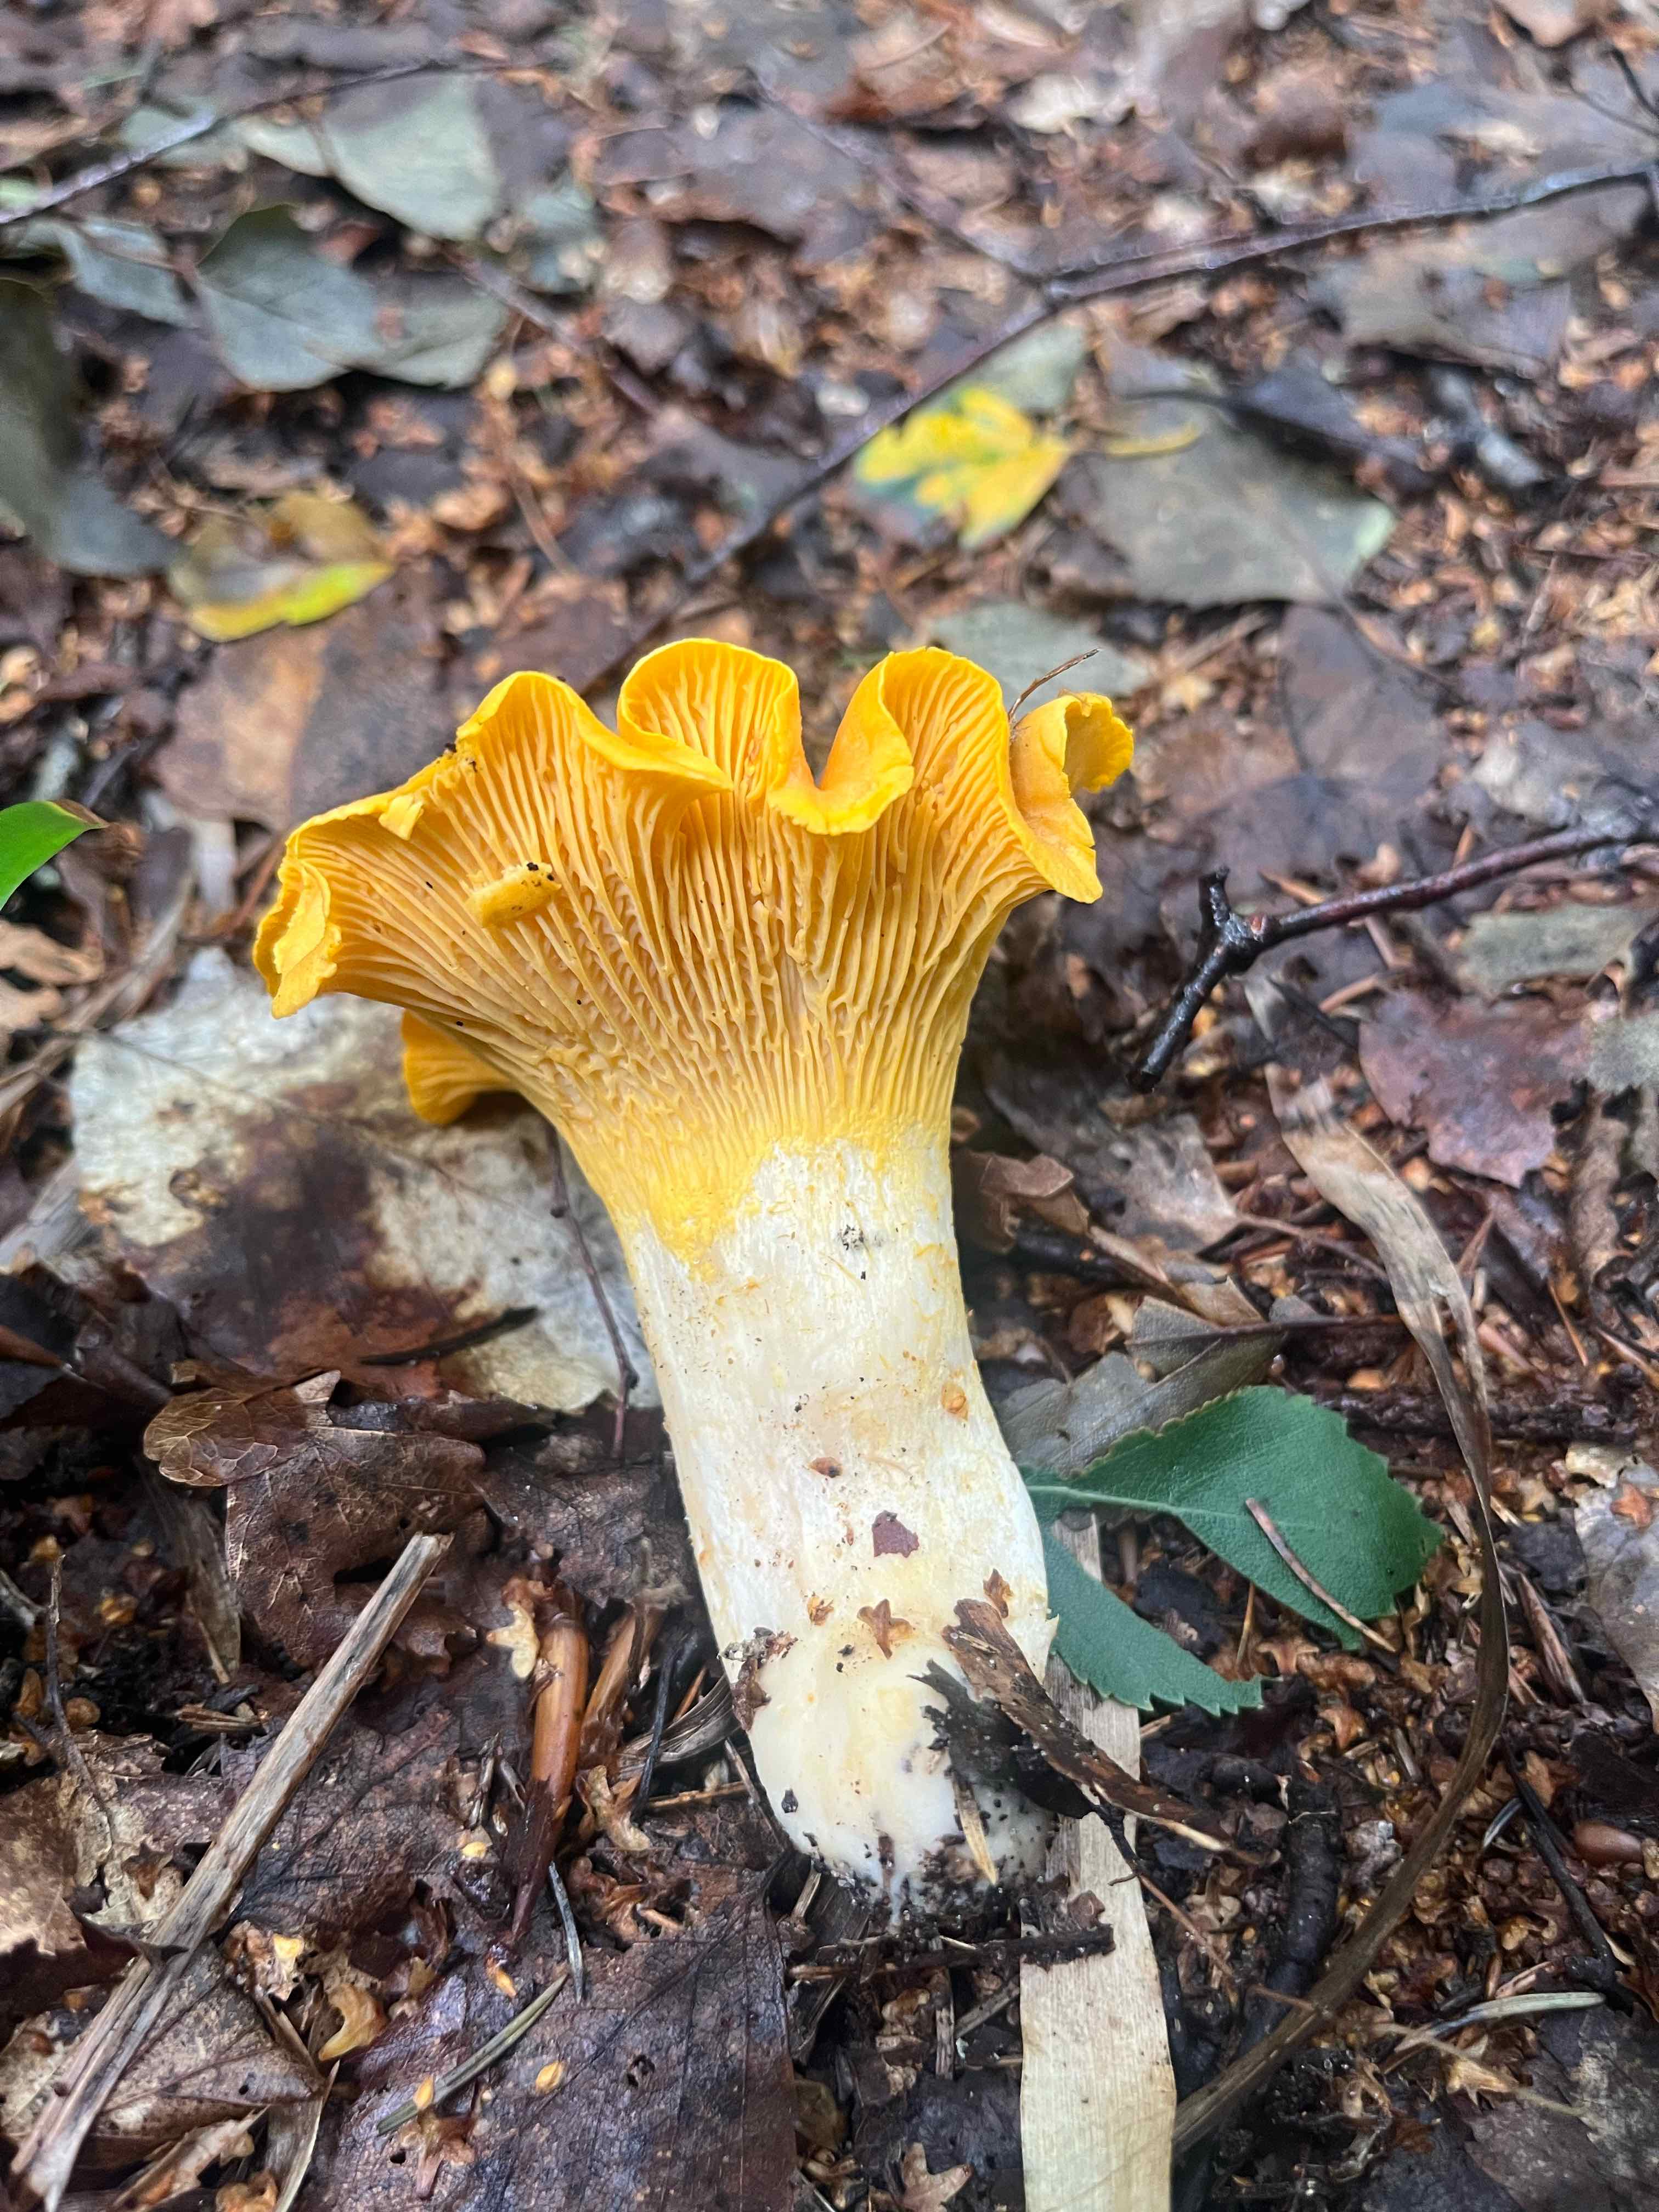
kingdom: Fungi
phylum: Basidiomycota
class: Agaricomycetes
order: Cantharellales
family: Hydnaceae
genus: Cantharellus
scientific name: Cantharellus
